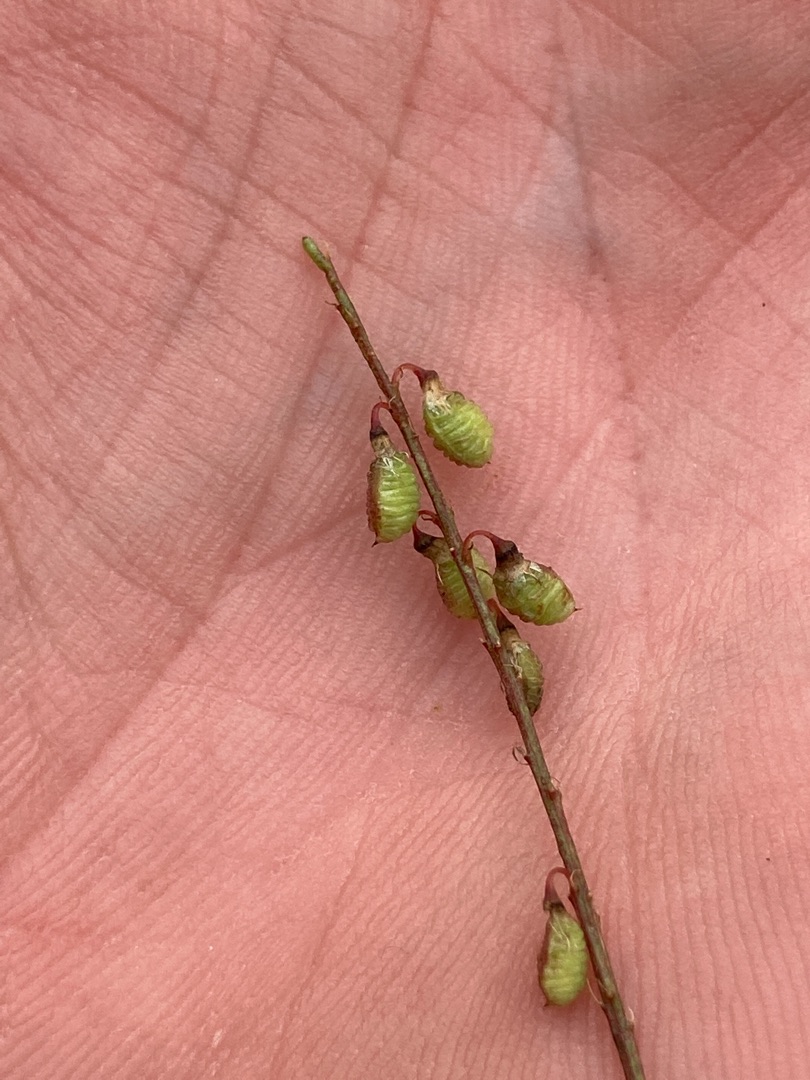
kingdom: Plantae
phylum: Tracheophyta
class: Magnoliopsida
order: Fabales
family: Fabaceae
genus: Melilotus
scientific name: Melilotus officinalis
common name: Mark-stenkløver
